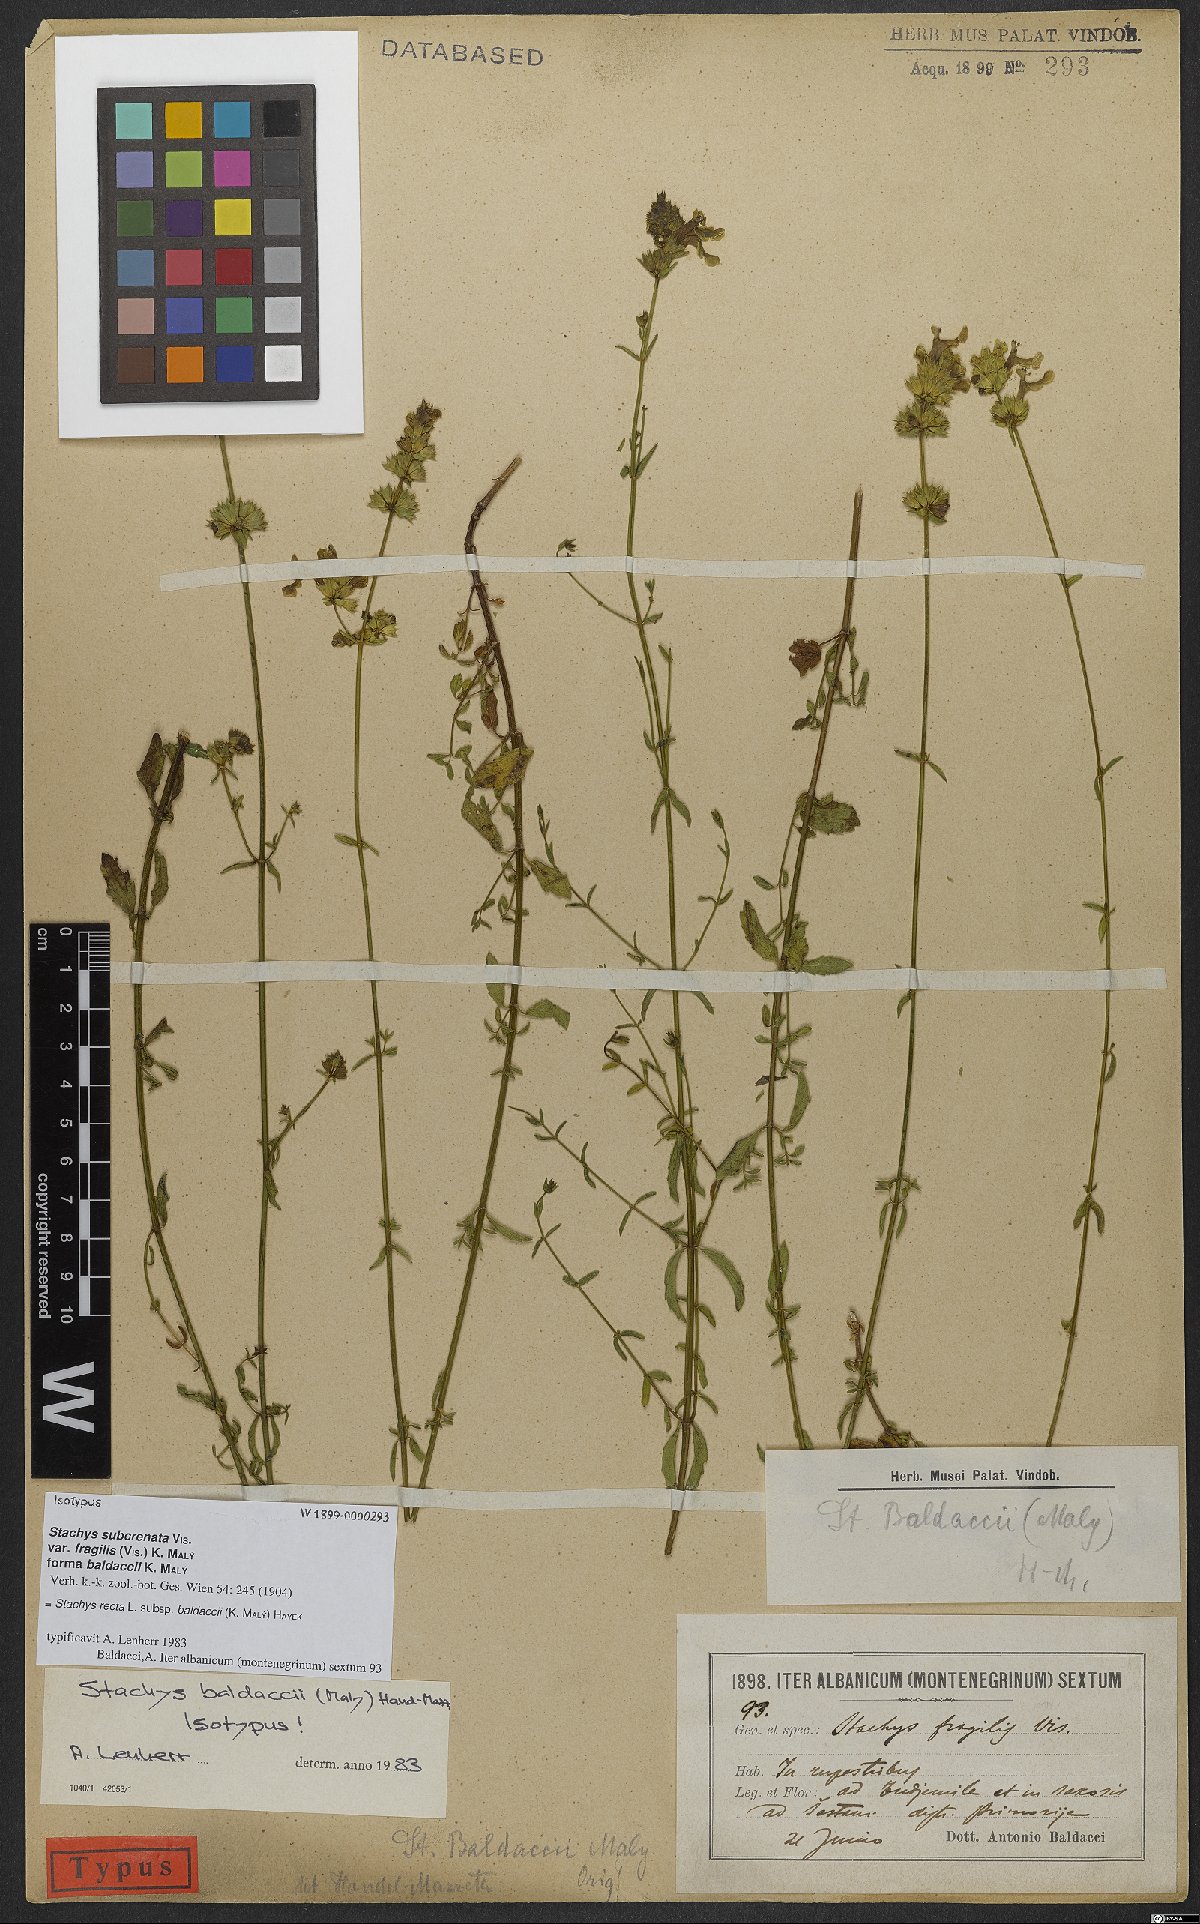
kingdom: Plantae
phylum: Tracheophyta
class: Magnoliopsida
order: Lamiales
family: Lamiaceae
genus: Stachys
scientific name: Stachys recta
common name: Perennial yellow-woundwort
